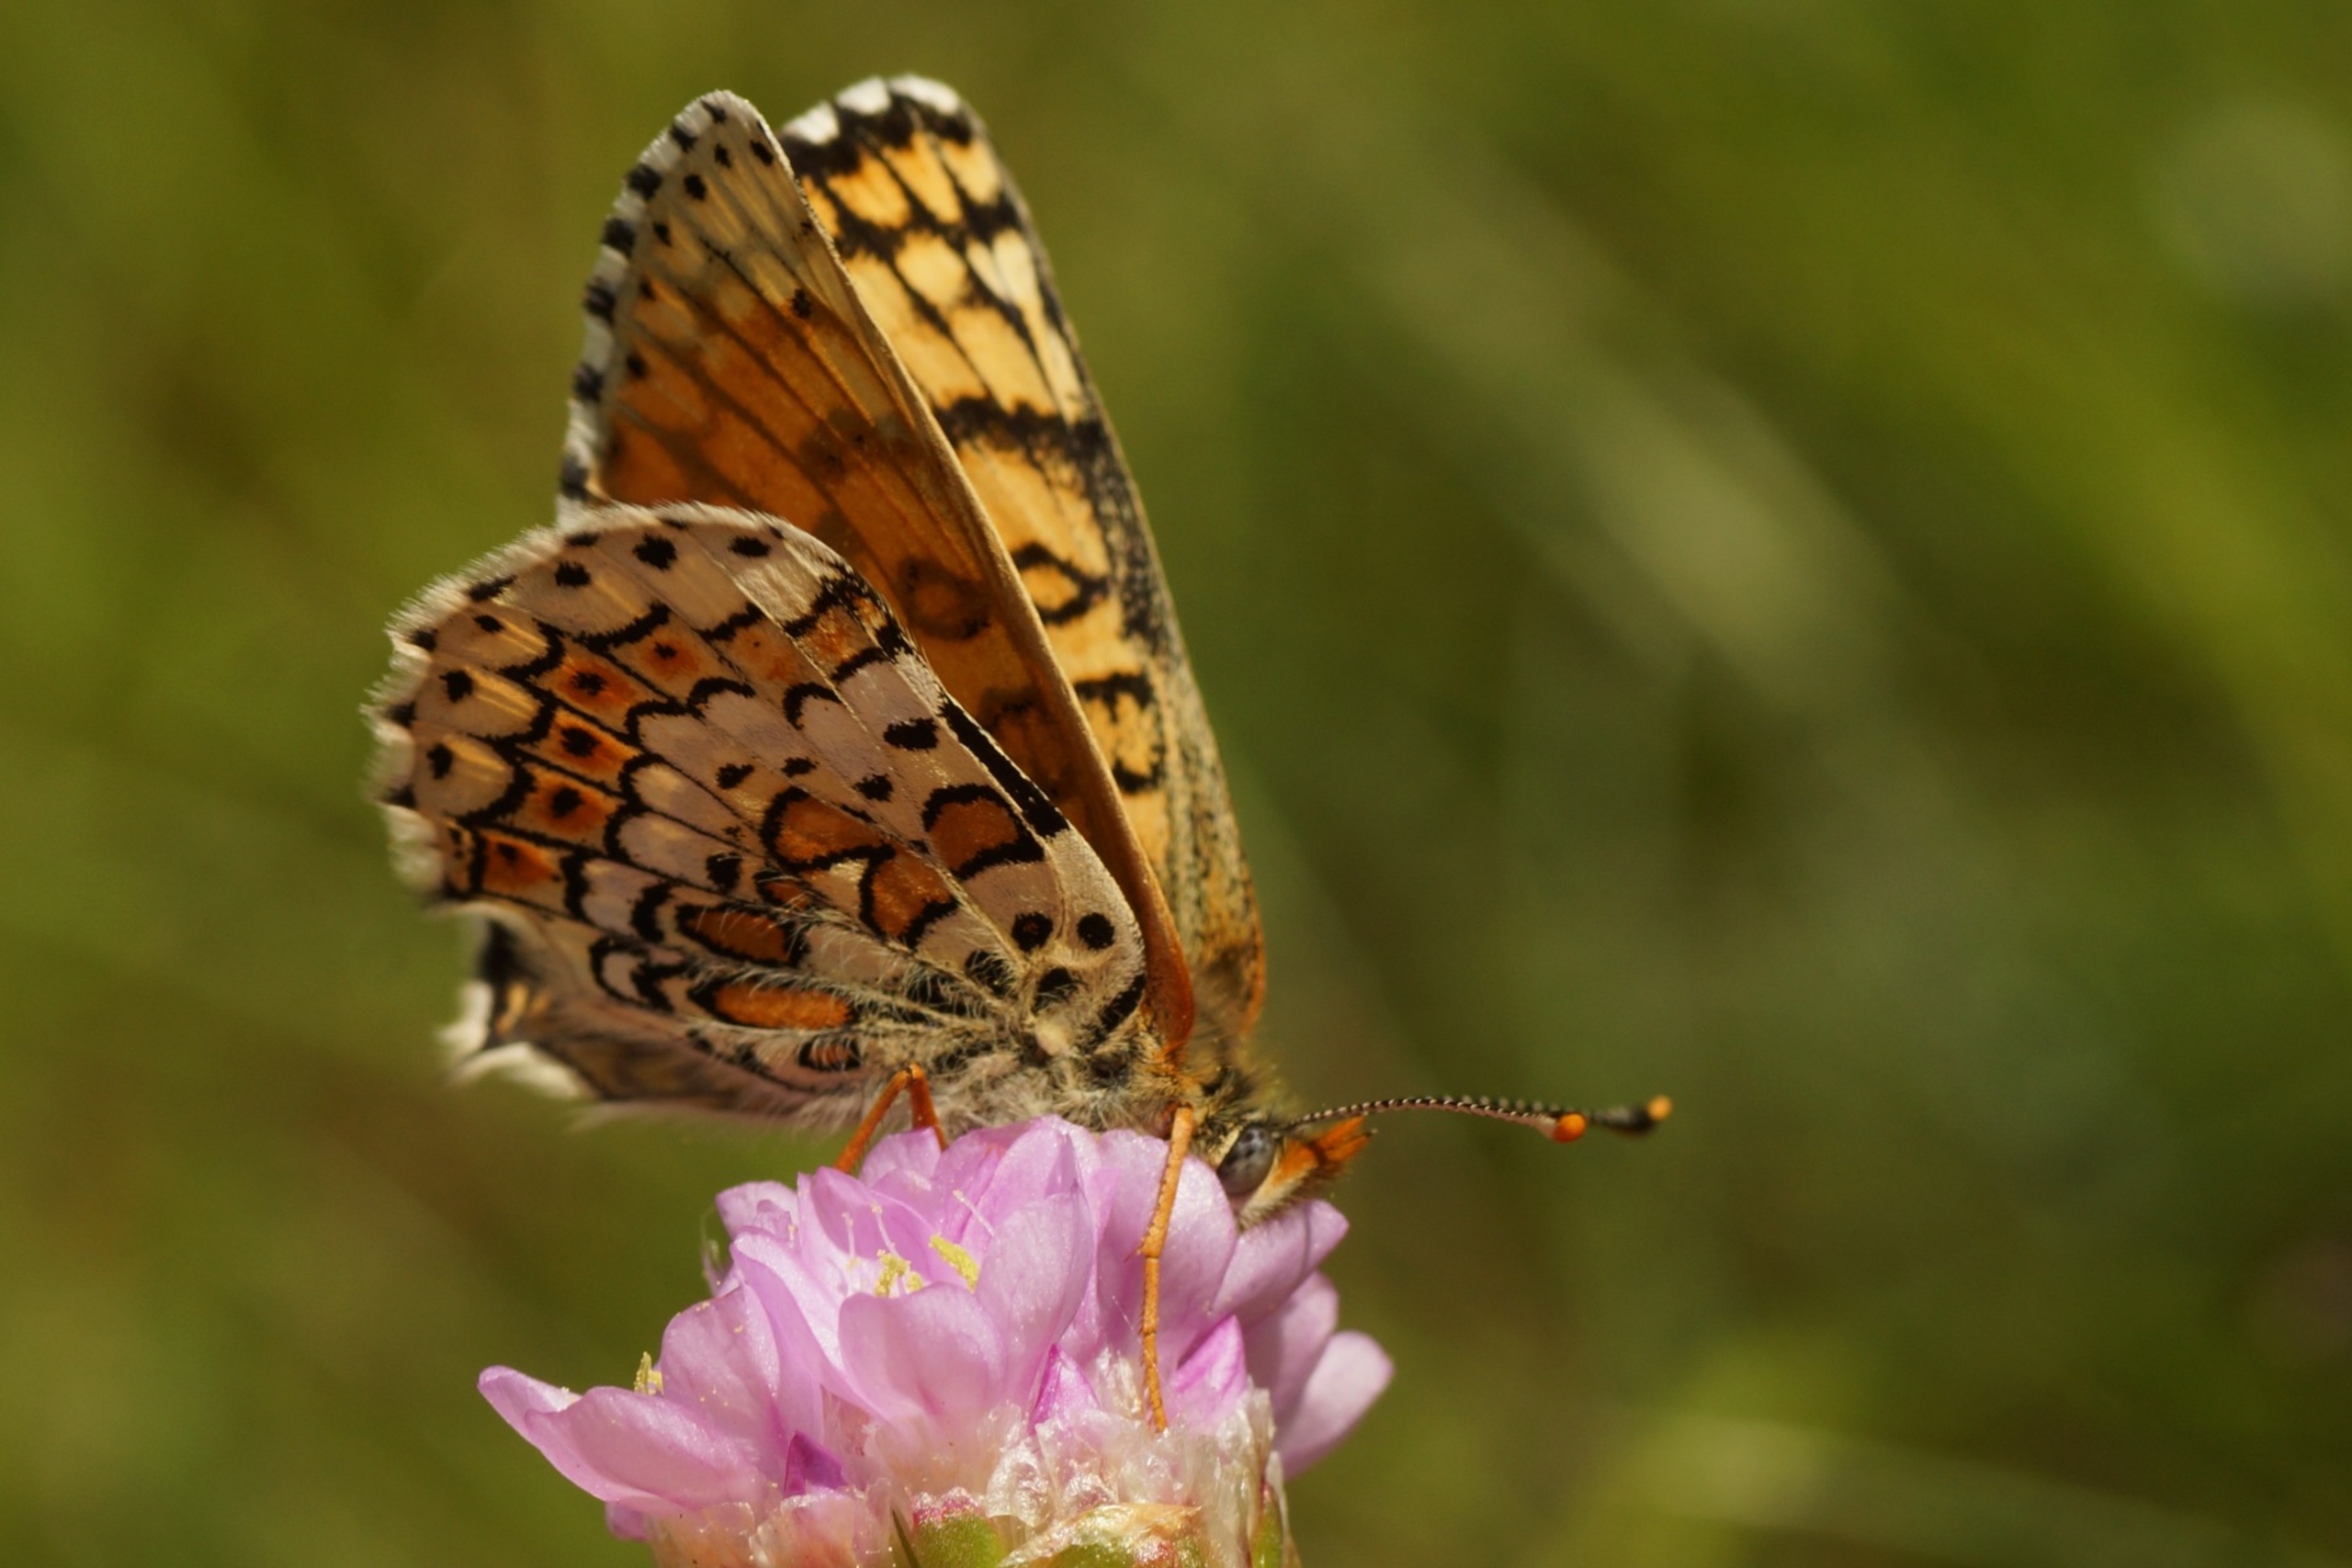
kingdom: Animalia
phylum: Arthropoda
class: Insecta
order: Lepidoptera
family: Nymphalidae
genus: Melitaea
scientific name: Melitaea cinxia
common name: Okkergul pletvinge
